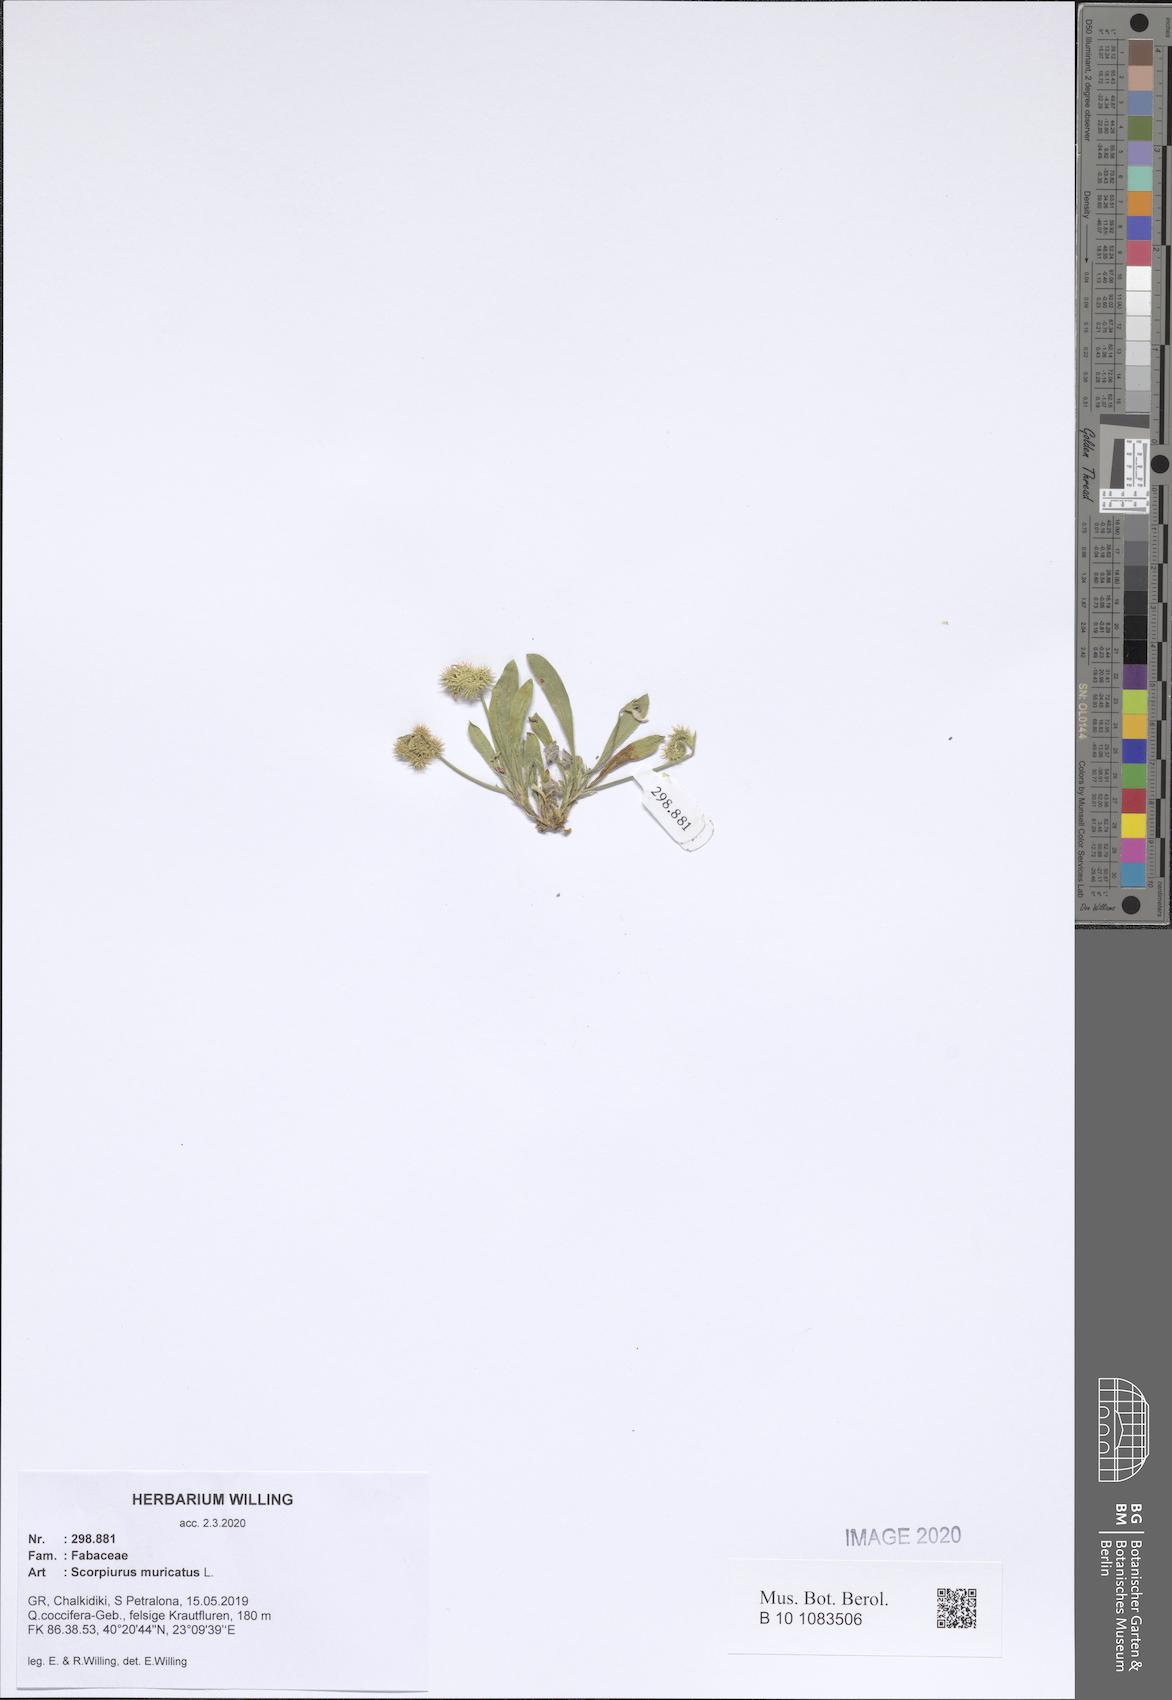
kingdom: Plantae
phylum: Tracheophyta
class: Magnoliopsida
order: Fabales
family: Fabaceae
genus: Scorpiurus
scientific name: Scorpiurus muricatus
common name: Caterpillar-plant
